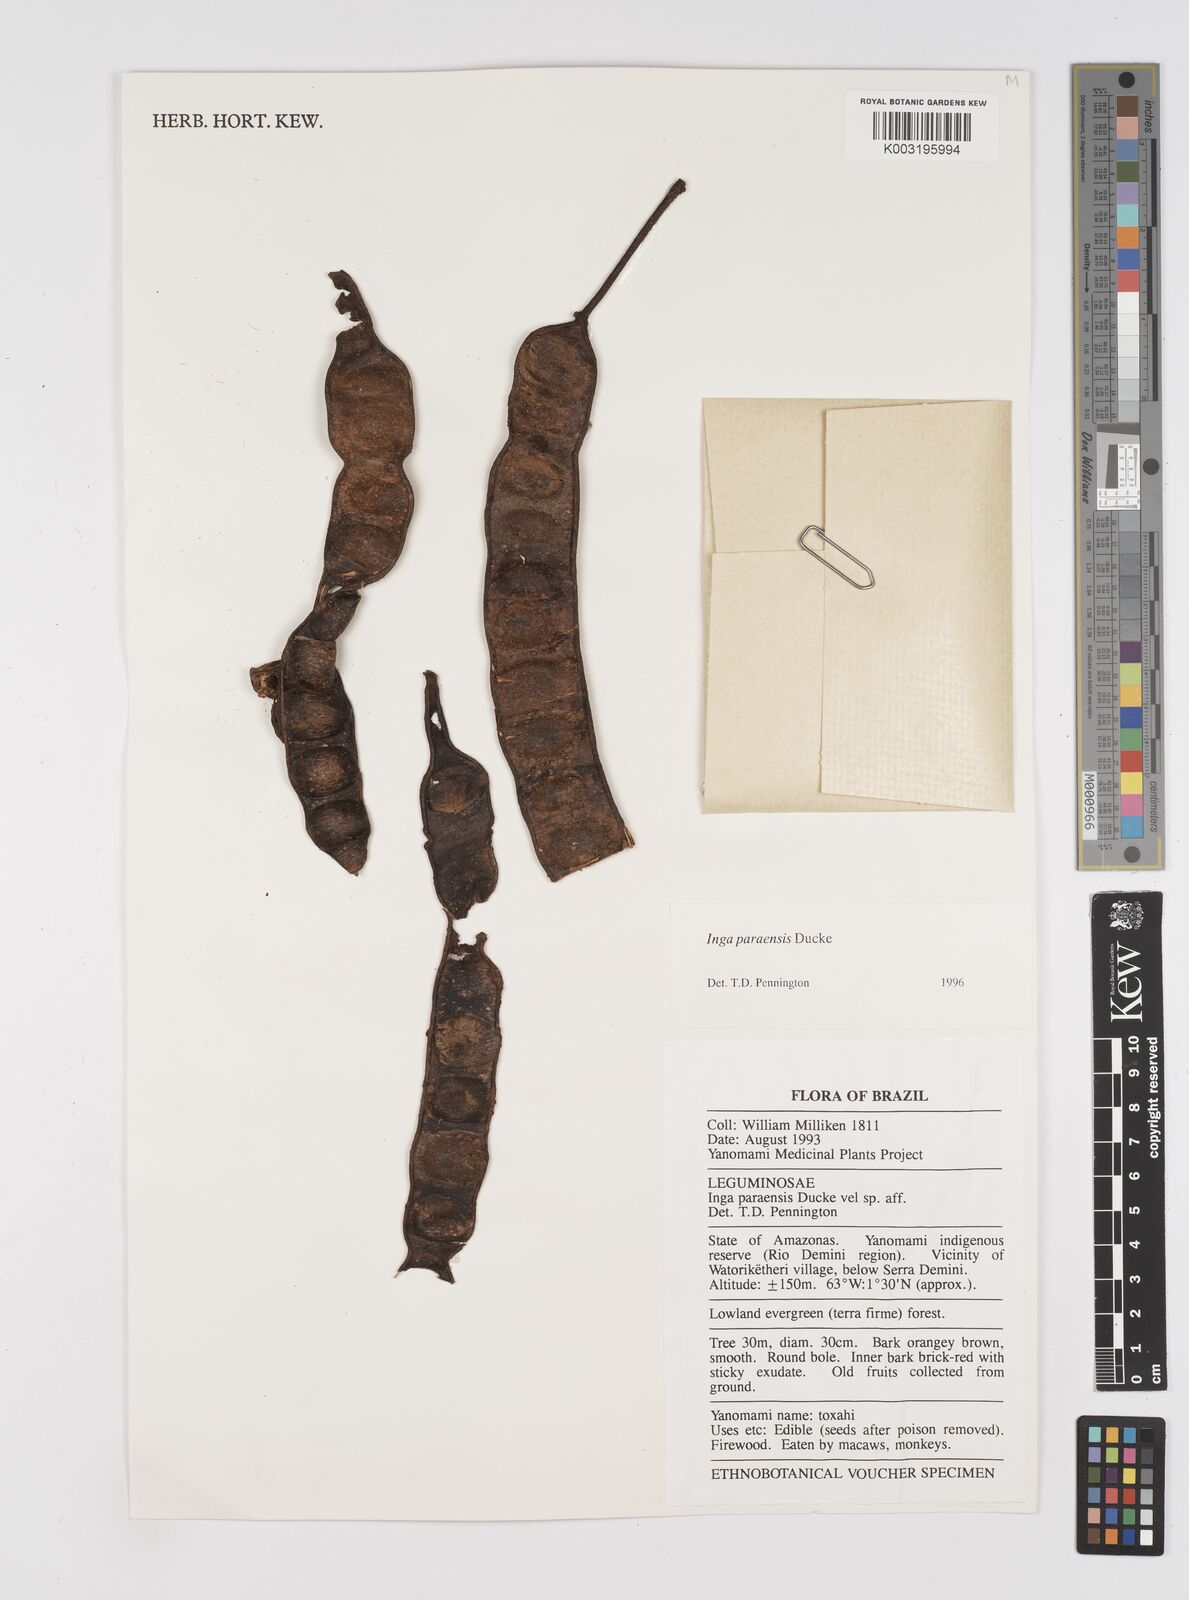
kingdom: Plantae
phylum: Tracheophyta
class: Magnoliopsida
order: Fabales
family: Fabaceae
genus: Inga
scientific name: Inga paraensis
